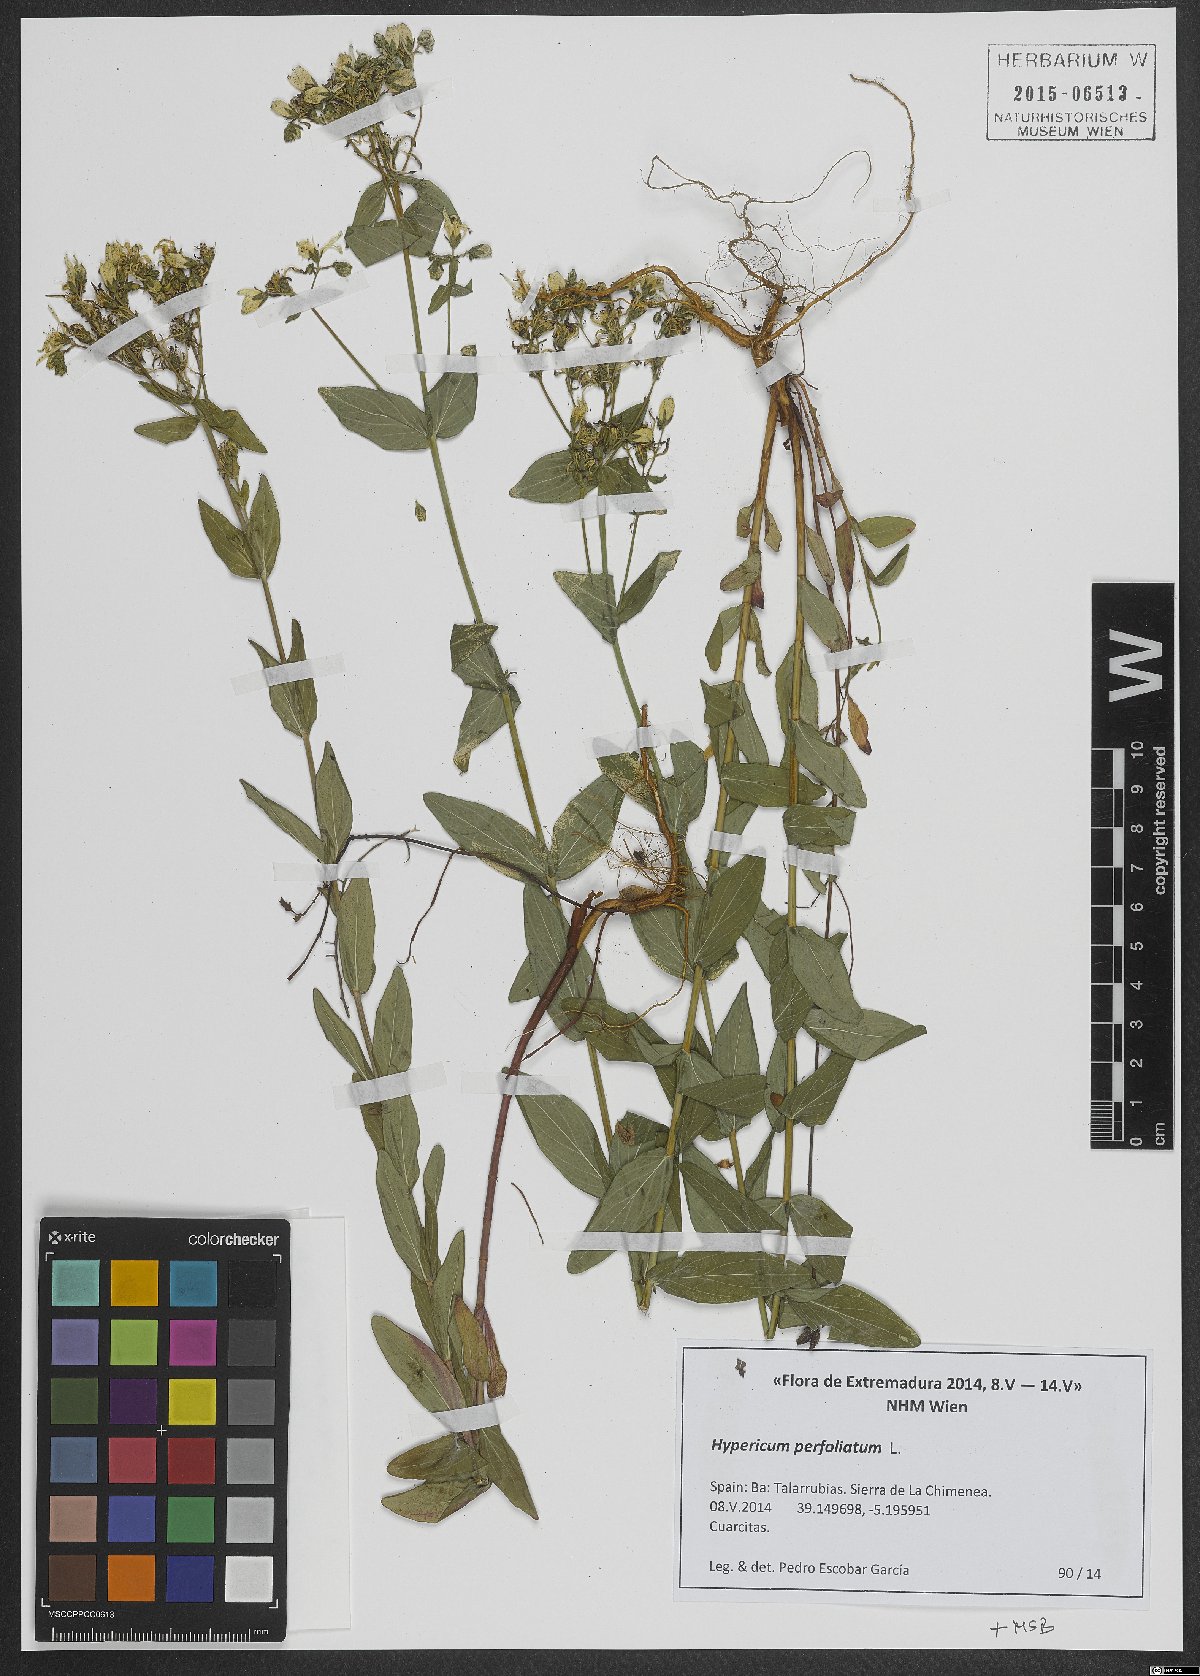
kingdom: Plantae
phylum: Tracheophyta
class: Magnoliopsida
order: Malpighiales
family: Hypericaceae
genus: Hypericum
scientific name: Hypericum perfoliatum
